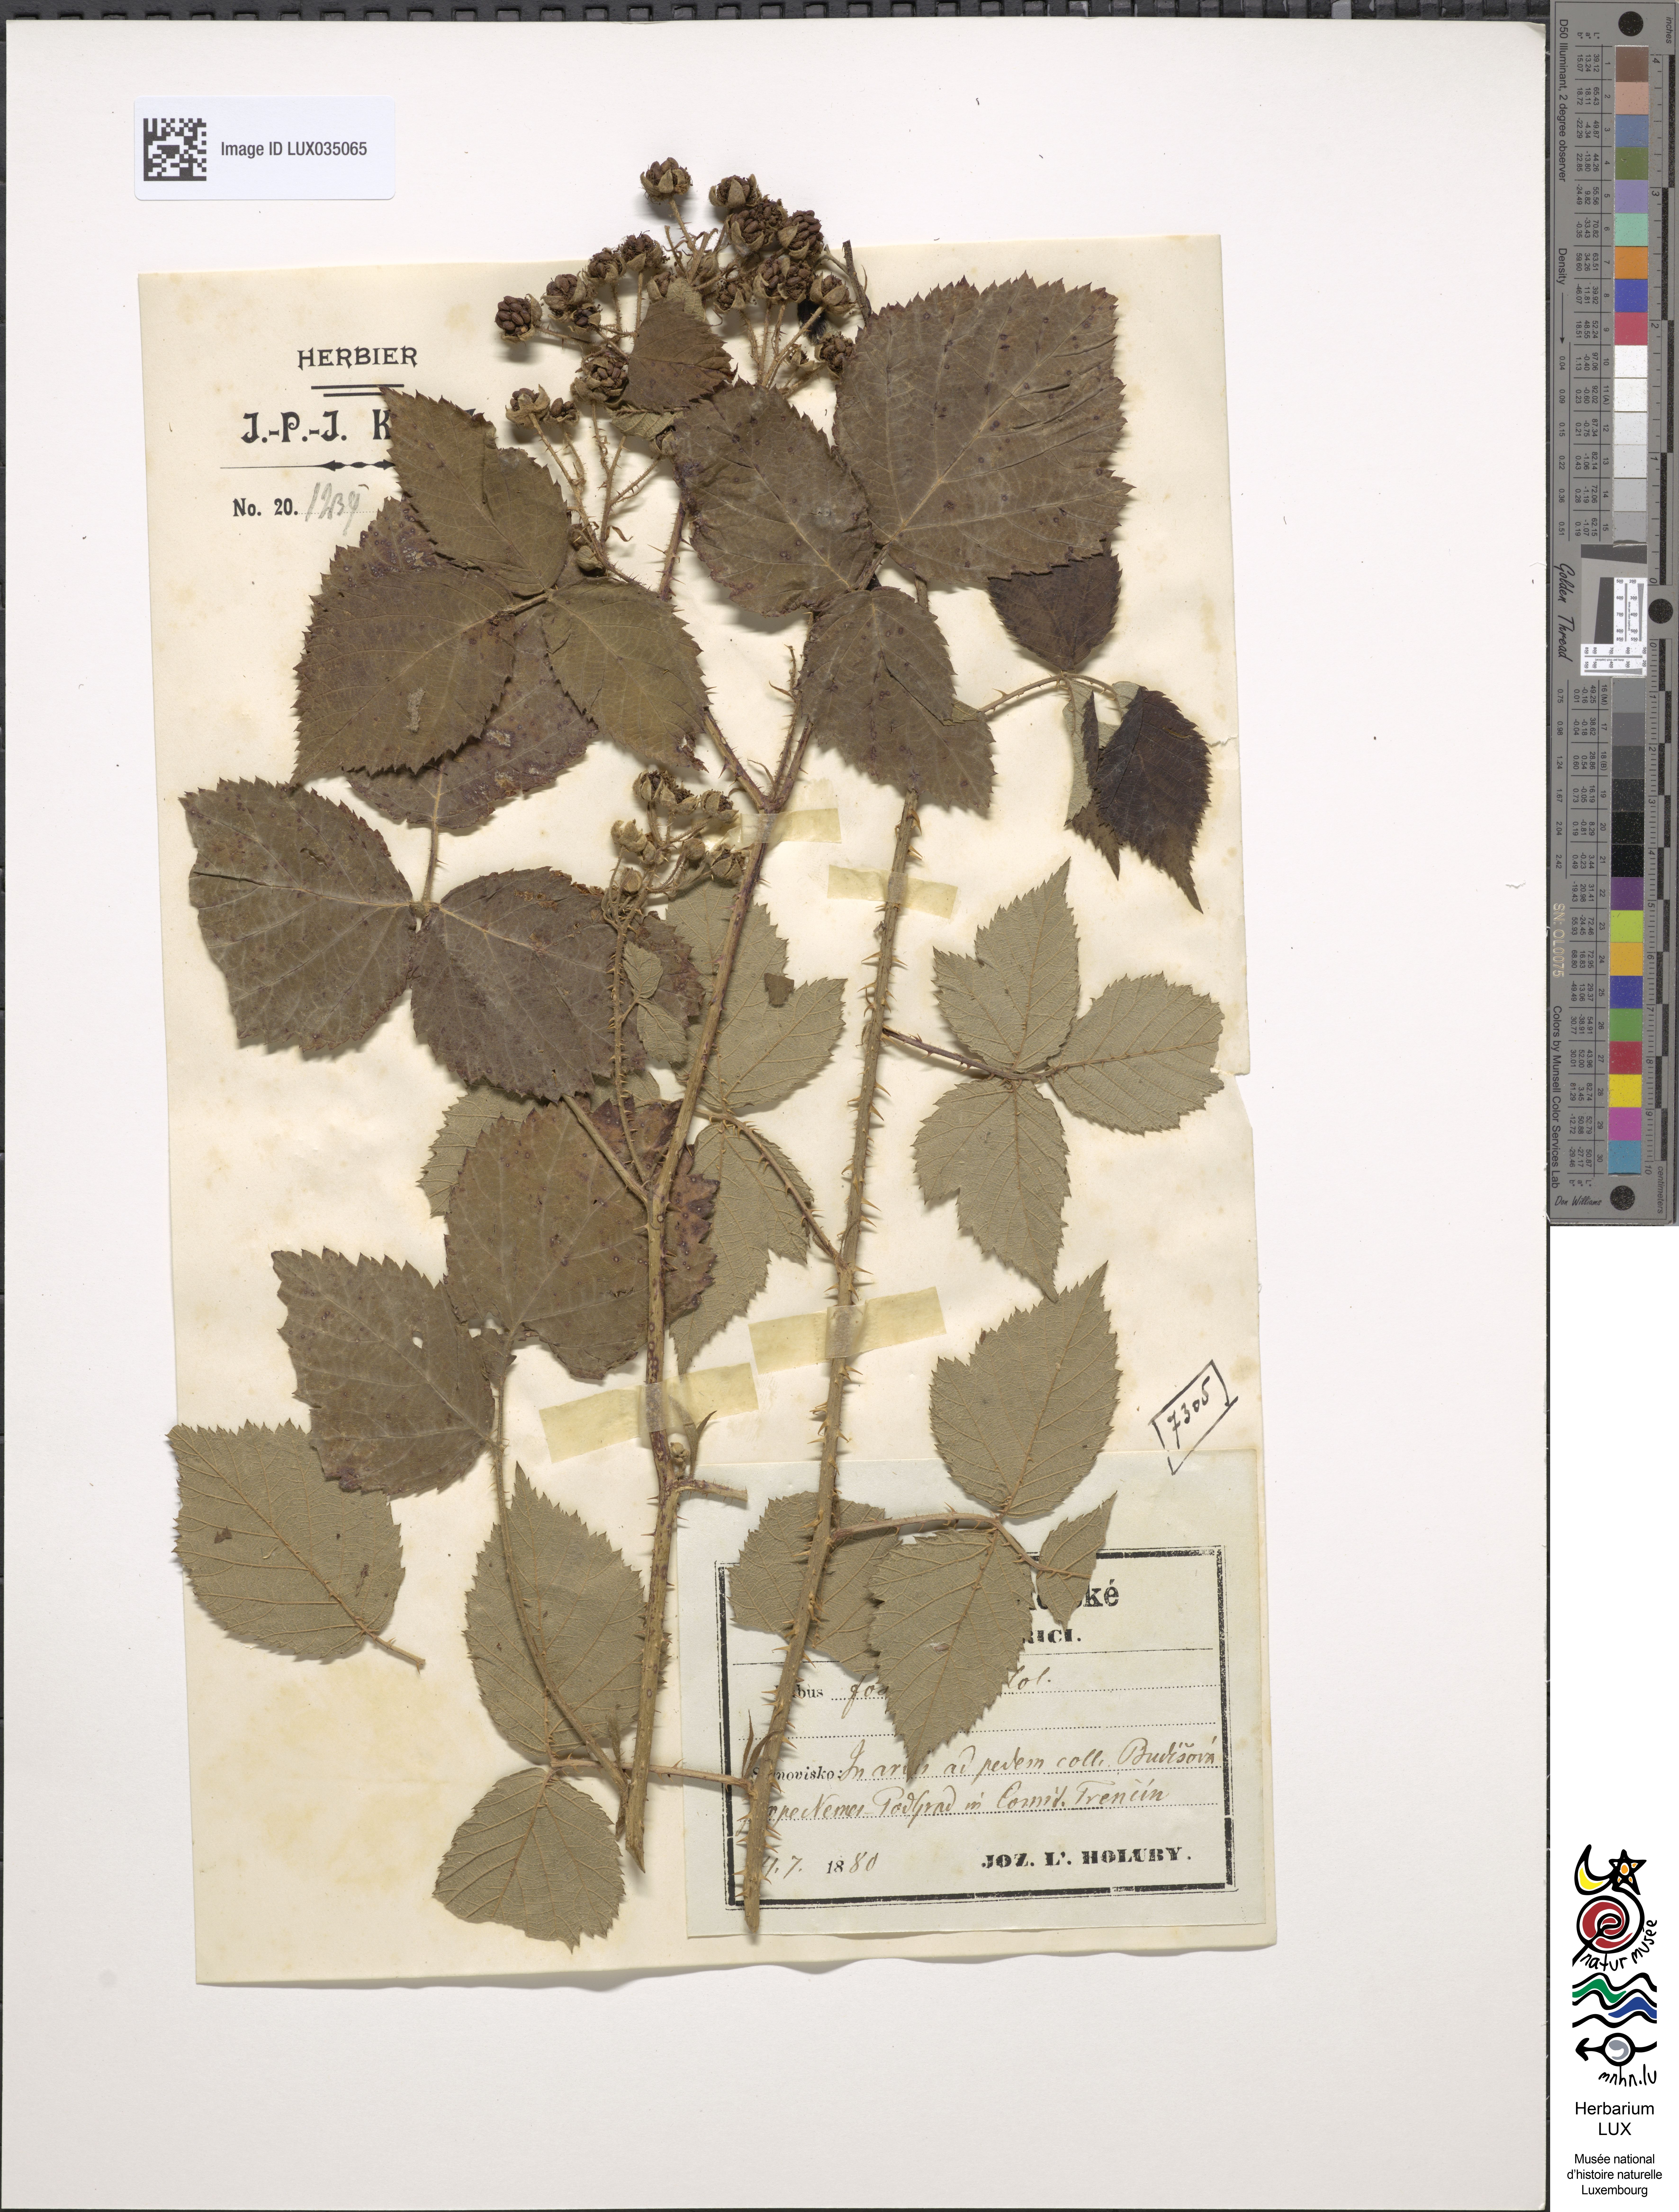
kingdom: Plantae
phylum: Tracheophyta
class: Magnoliopsida
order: Rosales
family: Rosaceae
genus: Rubus
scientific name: Rubus fossicola
